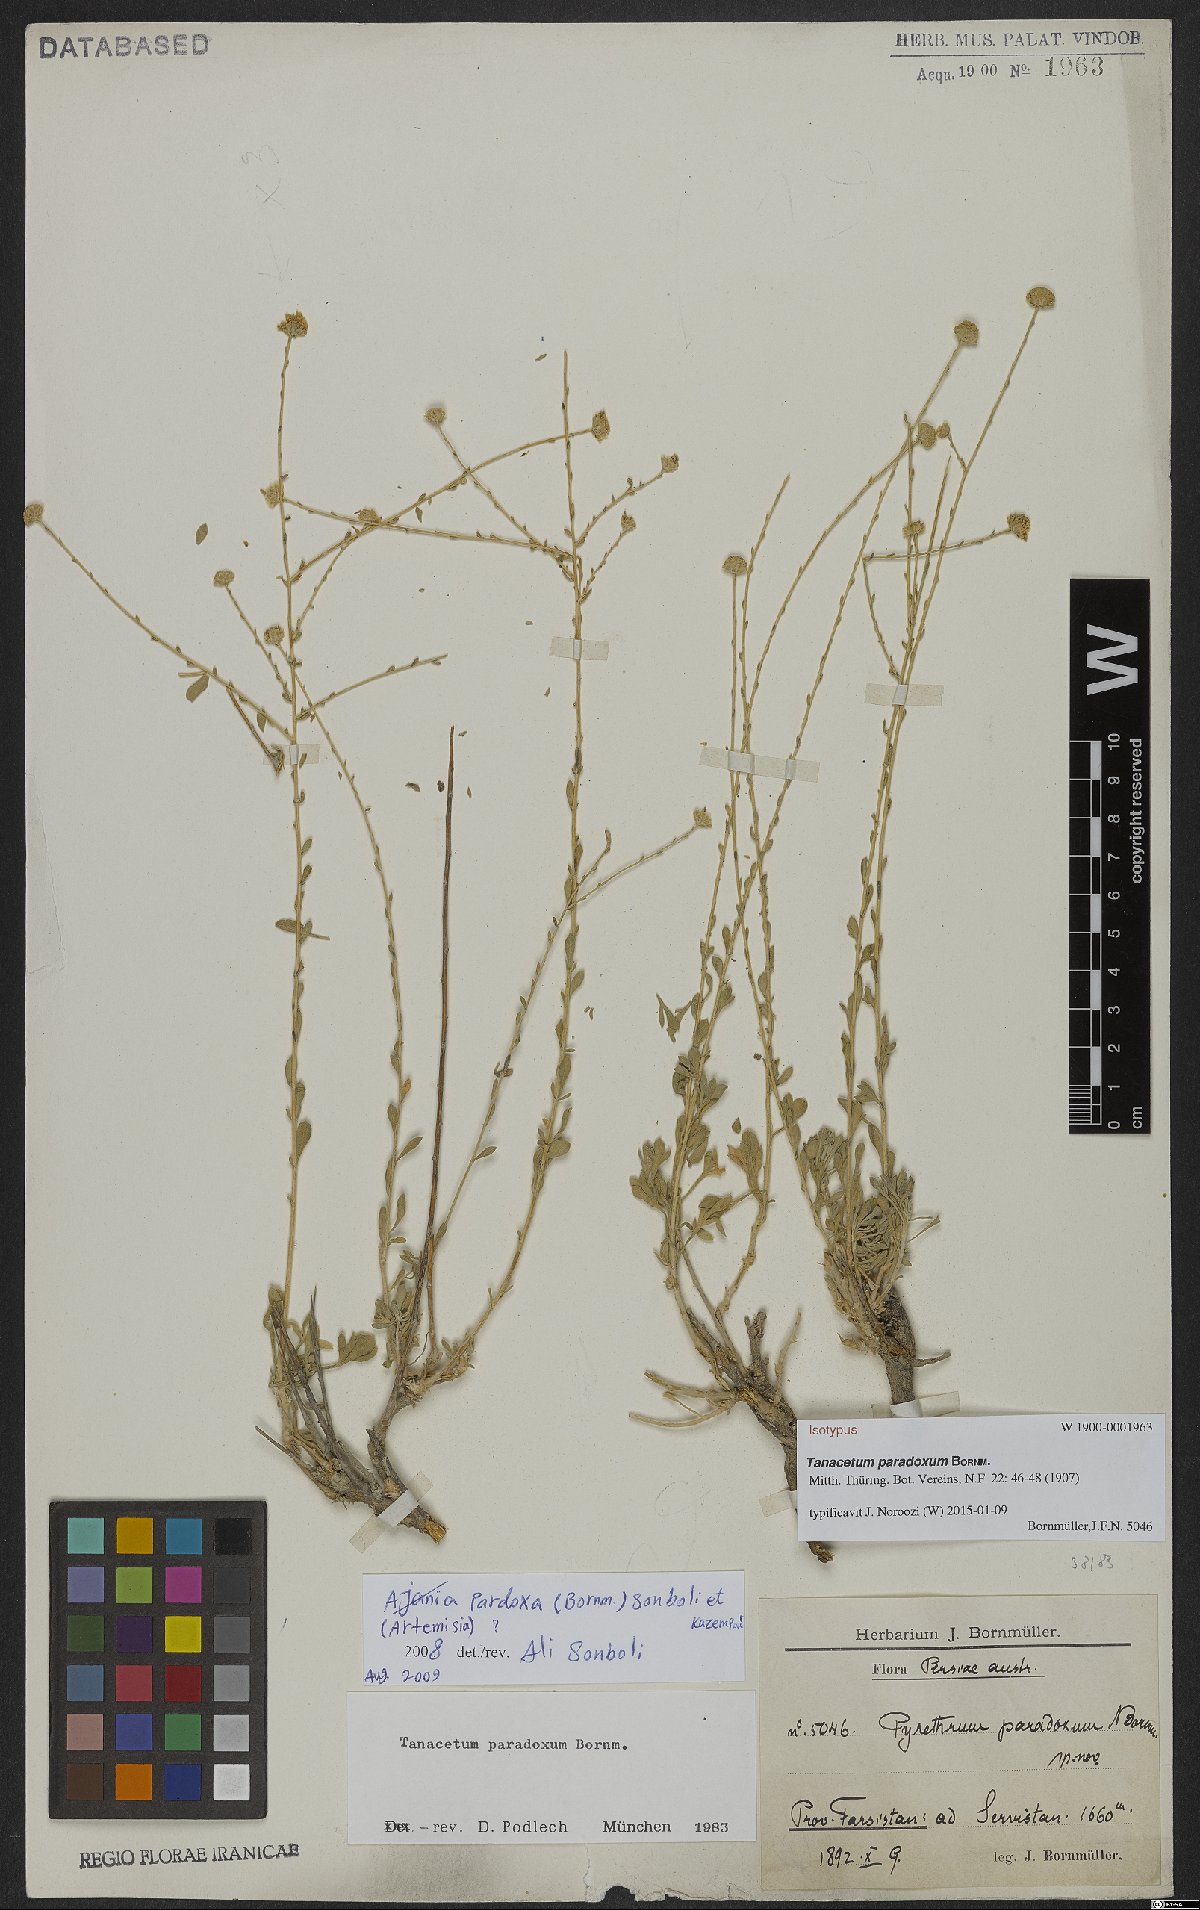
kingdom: Plantae
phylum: Tracheophyta
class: Magnoliopsida
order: Asterales
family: Asteraceae
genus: Tanacetum
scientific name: Tanacetum paradoxum
